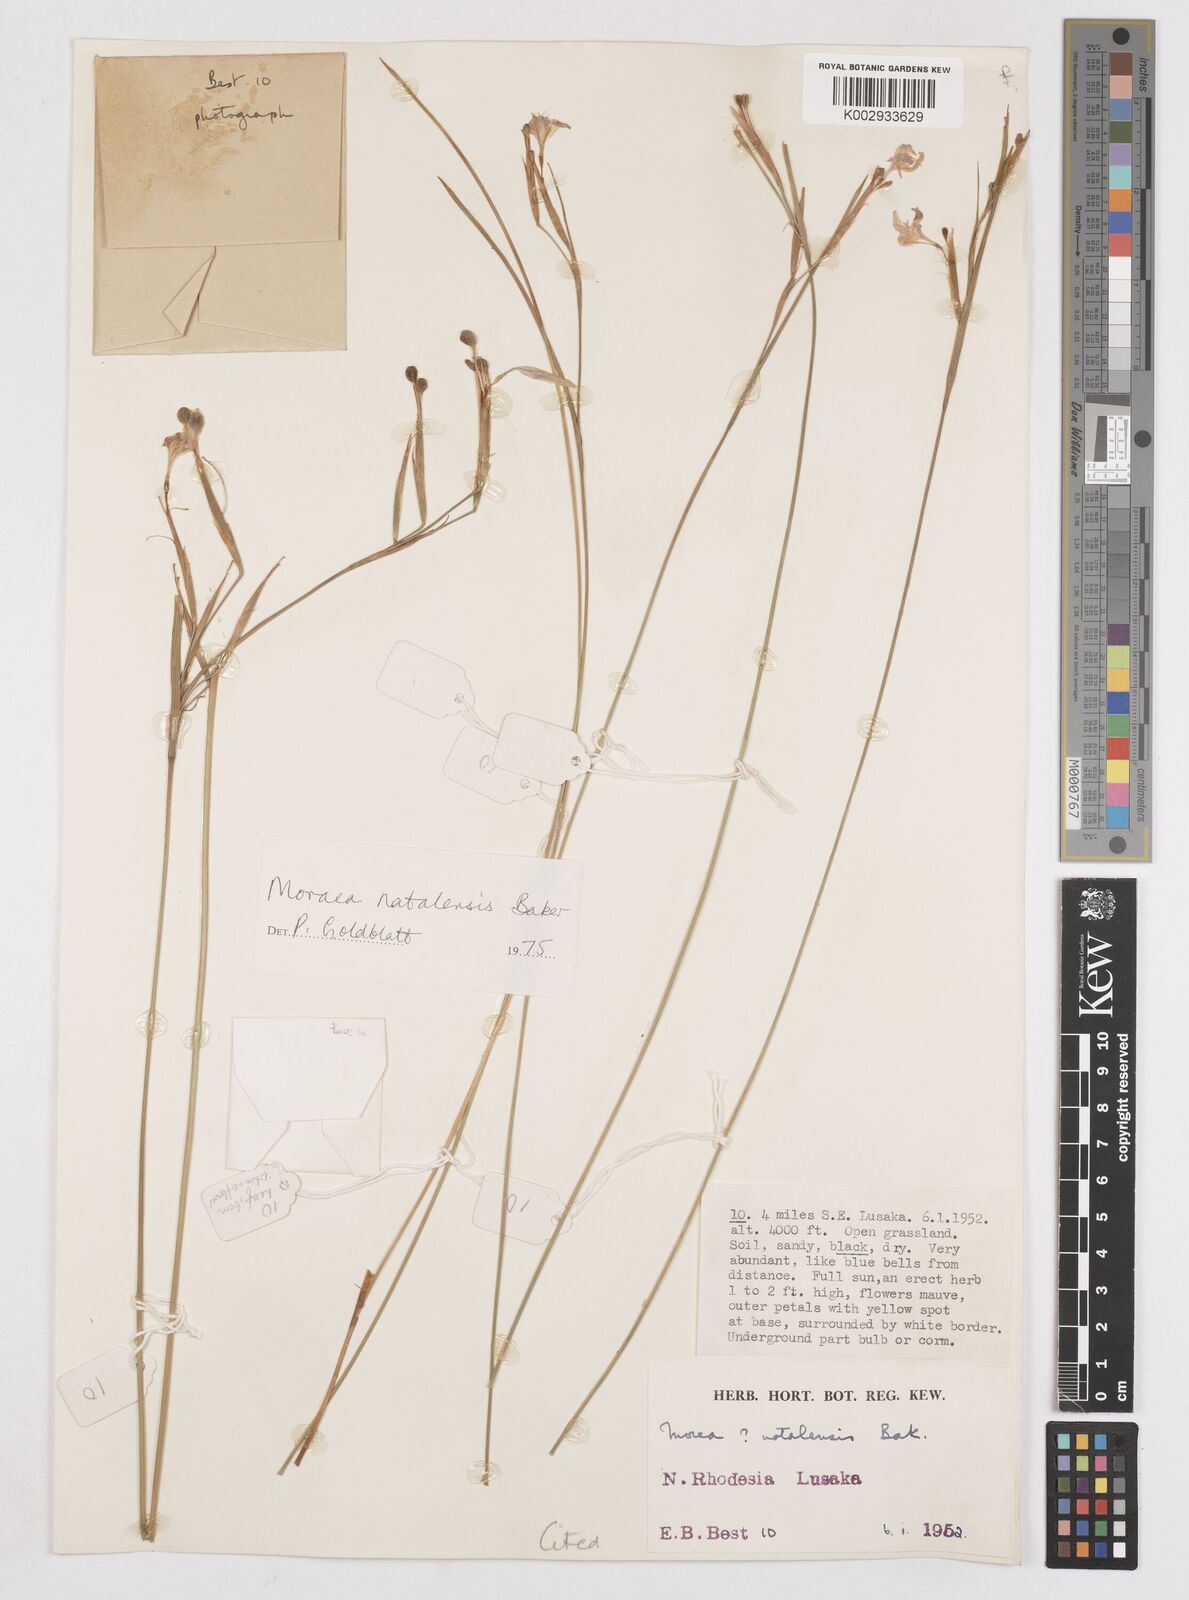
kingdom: Plantae
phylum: Tracheophyta
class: Liliopsida
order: Asparagales
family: Iridaceae
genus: Moraea
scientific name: Moraea natalensis
